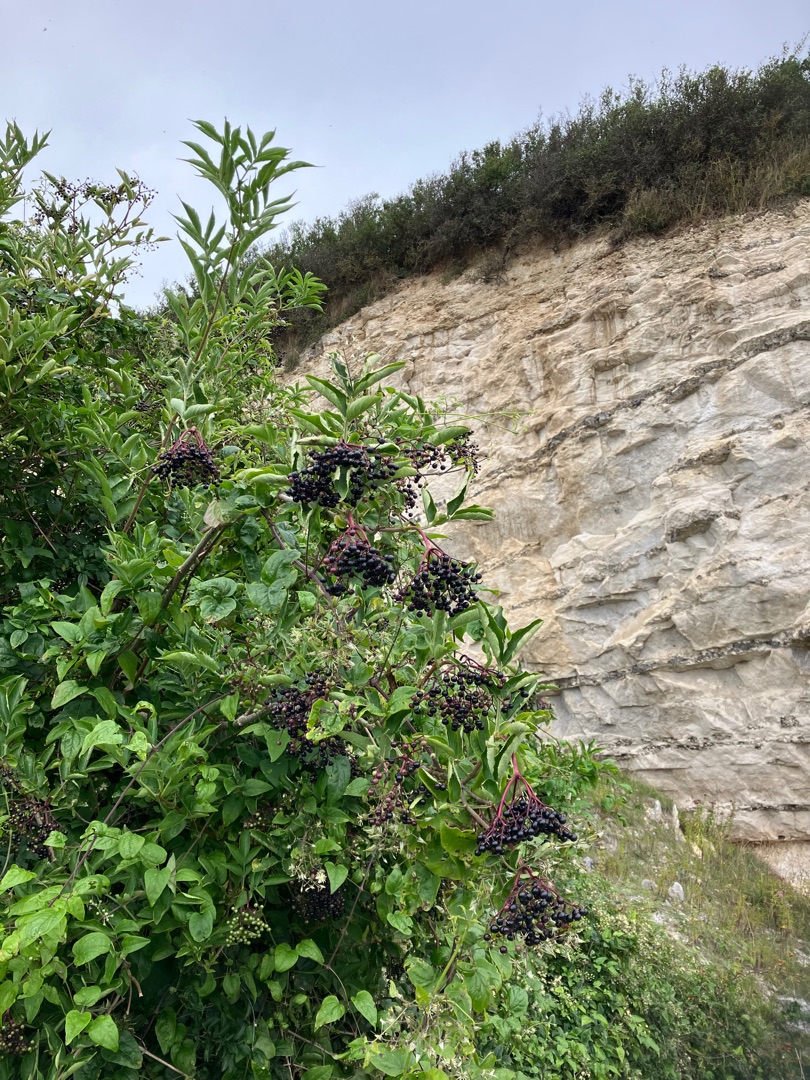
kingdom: Plantae
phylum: Tracheophyta
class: Magnoliopsida
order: Dipsacales
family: Viburnaceae
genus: Sambucus
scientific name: Sambucus nigra
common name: Almindelig hyld
